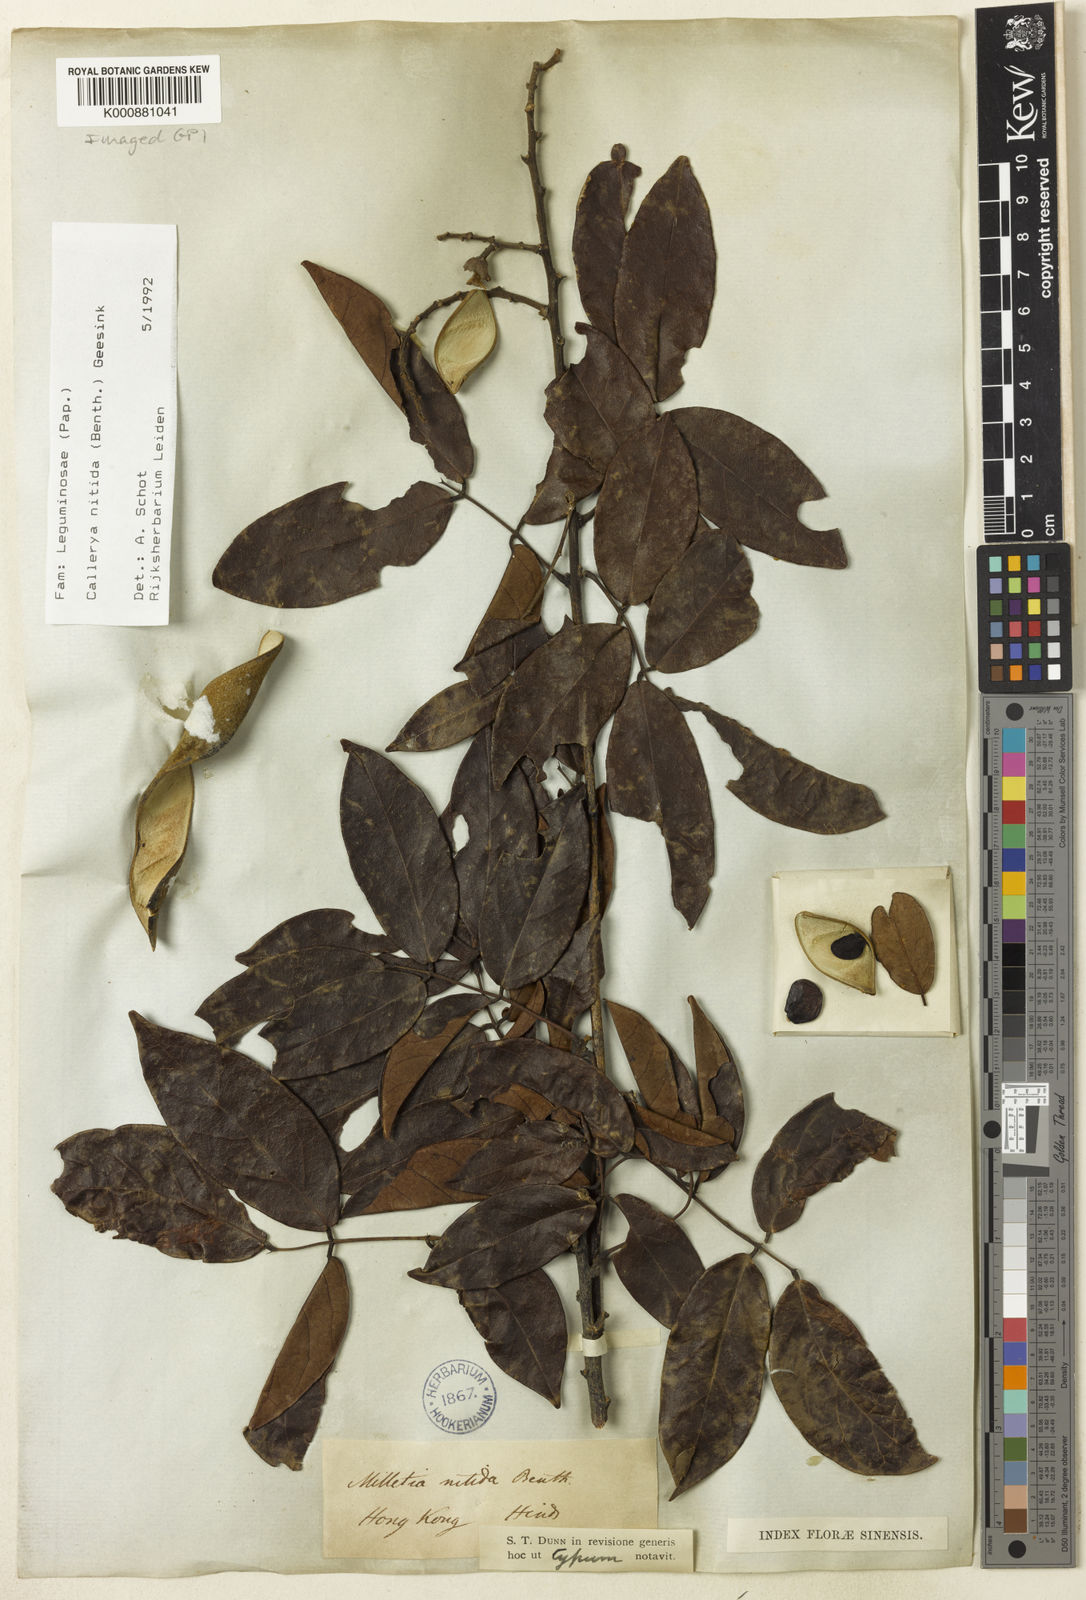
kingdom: Plantae
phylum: Tracheophyta
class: Magnoliopsida
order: Fabales
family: Fabaceae
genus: Callerya
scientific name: Callerya nitida
